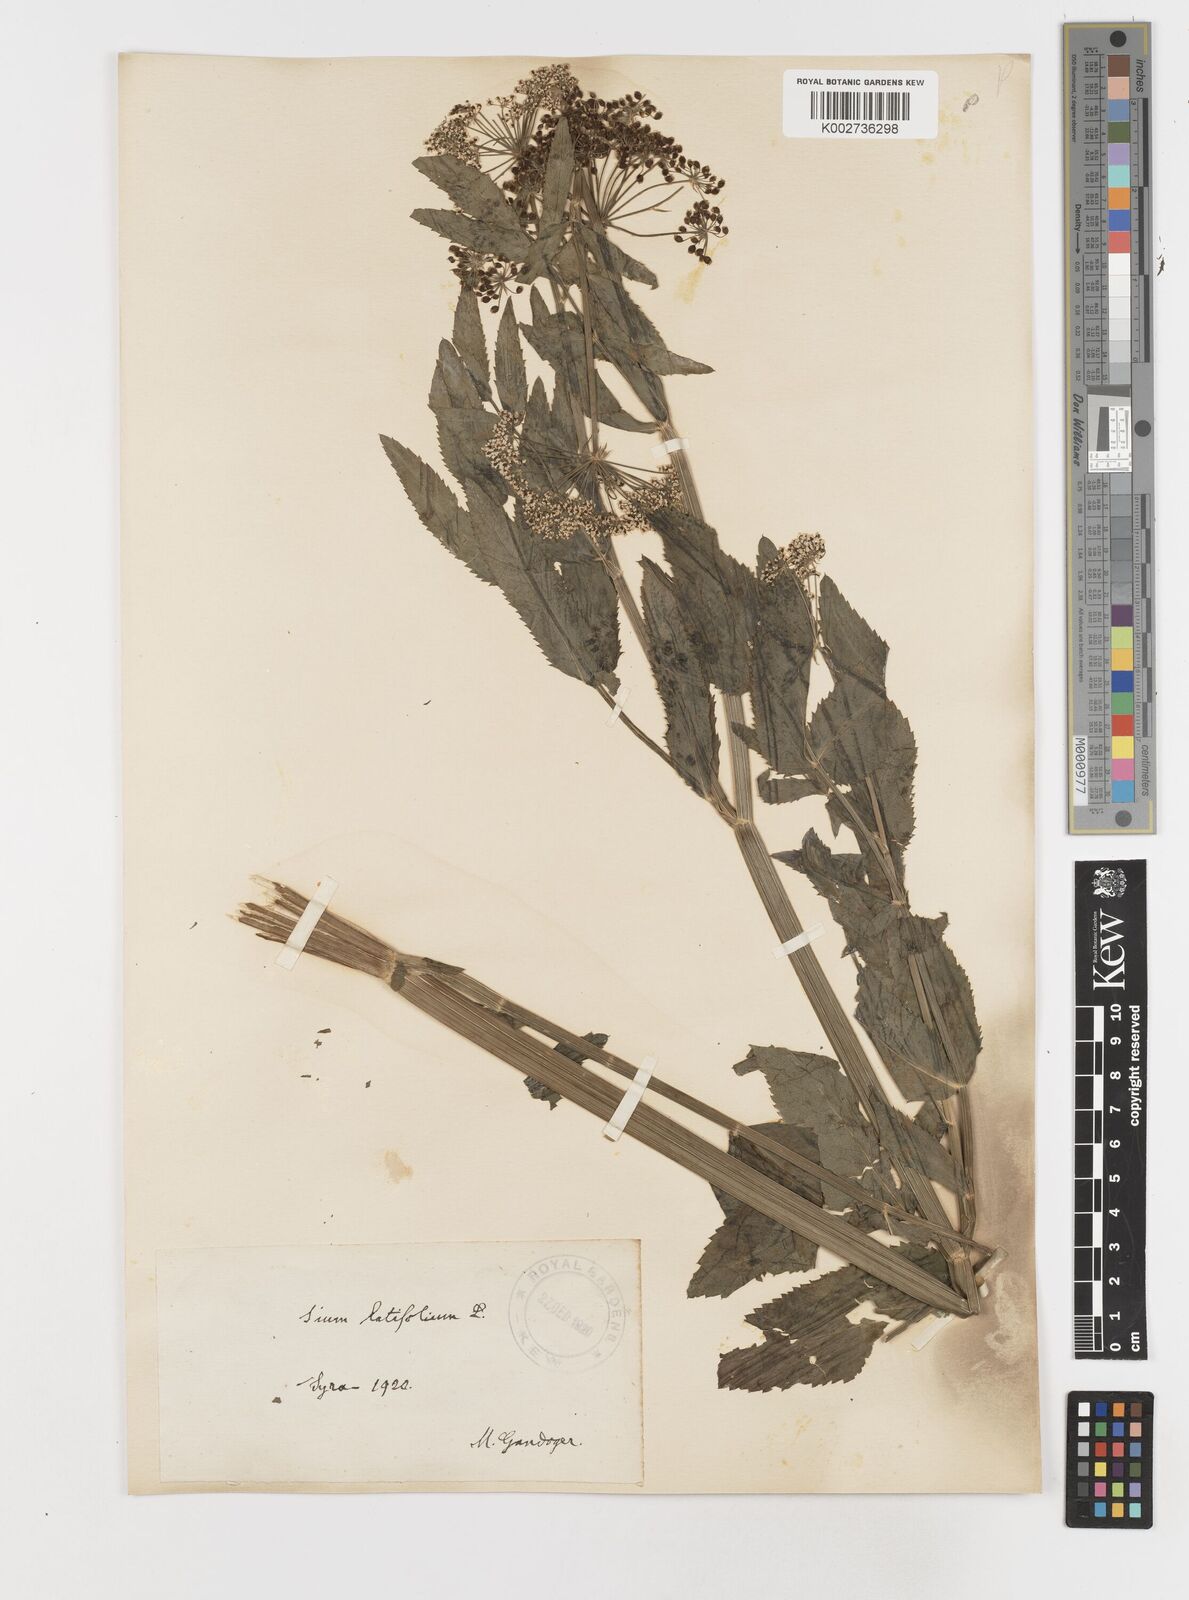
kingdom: Plantae
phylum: Tracheophyta
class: Magnoliopsida
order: Apiales
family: Apiaceae
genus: Sium
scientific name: Sium latifolium
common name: Greater water-parsnip
